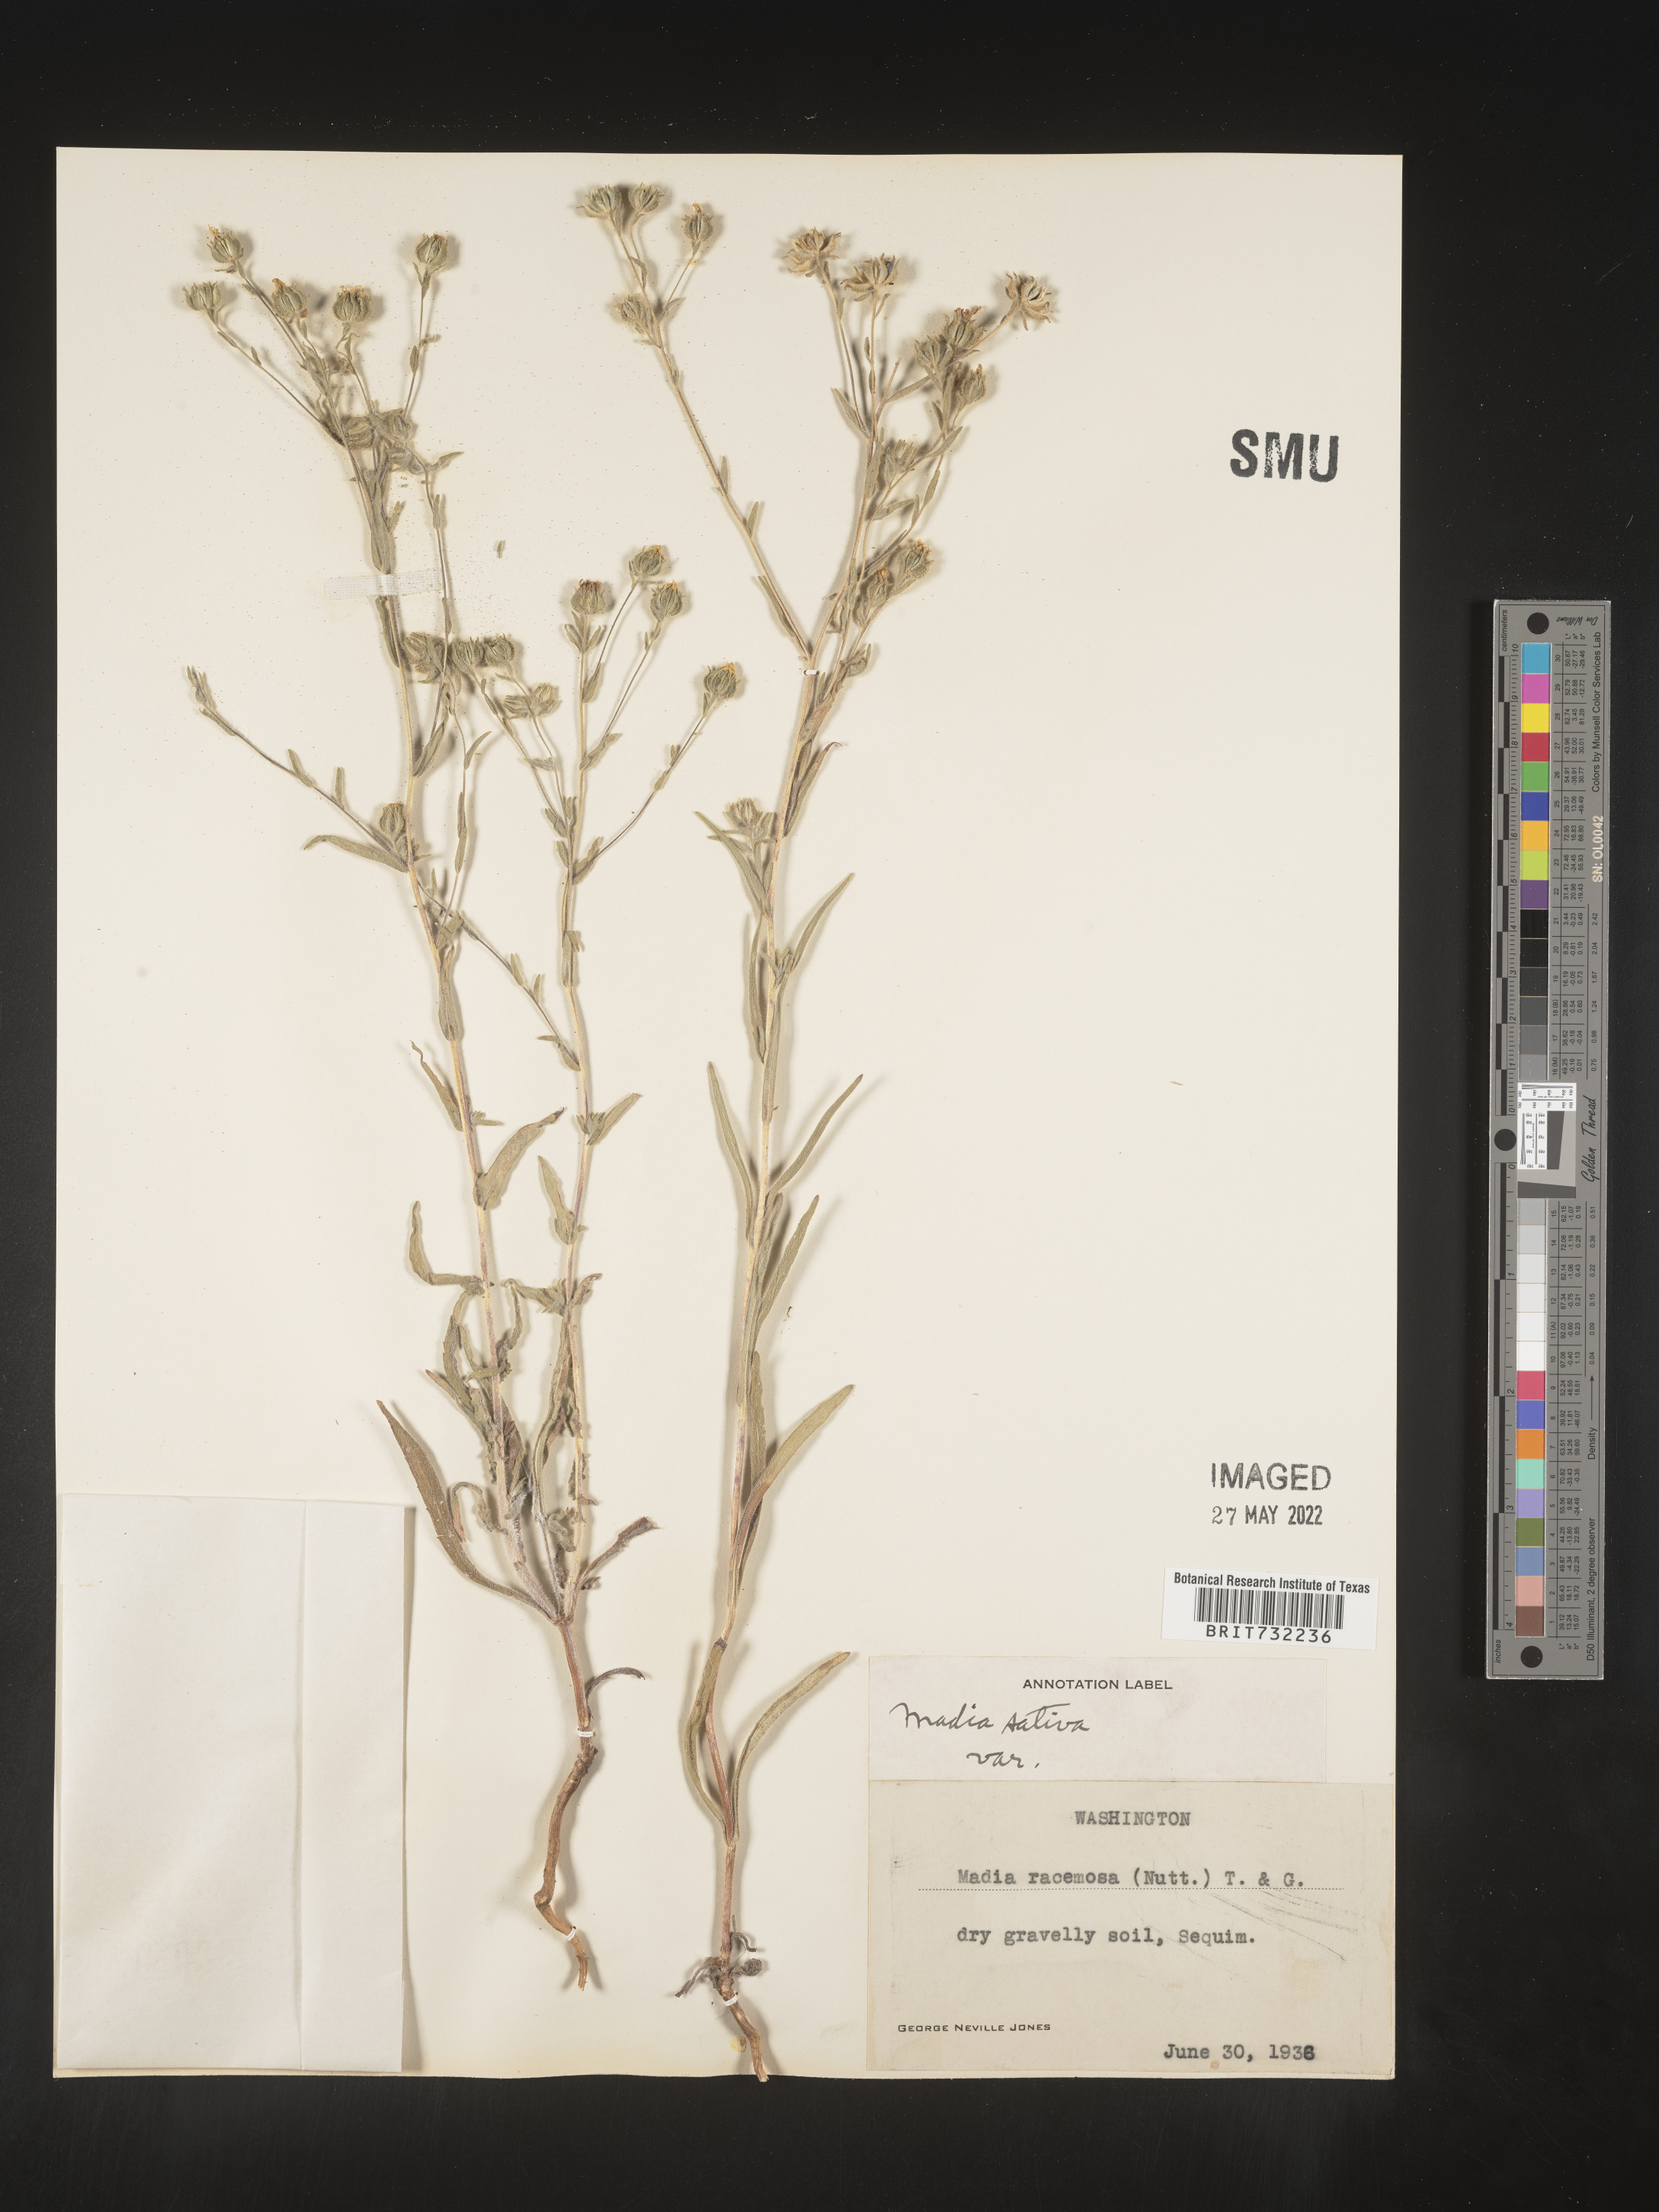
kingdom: Plantae
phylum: Tracheophyta
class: Magnoliopsida
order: Asterales
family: Asteraceae
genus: Madia
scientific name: Madia
